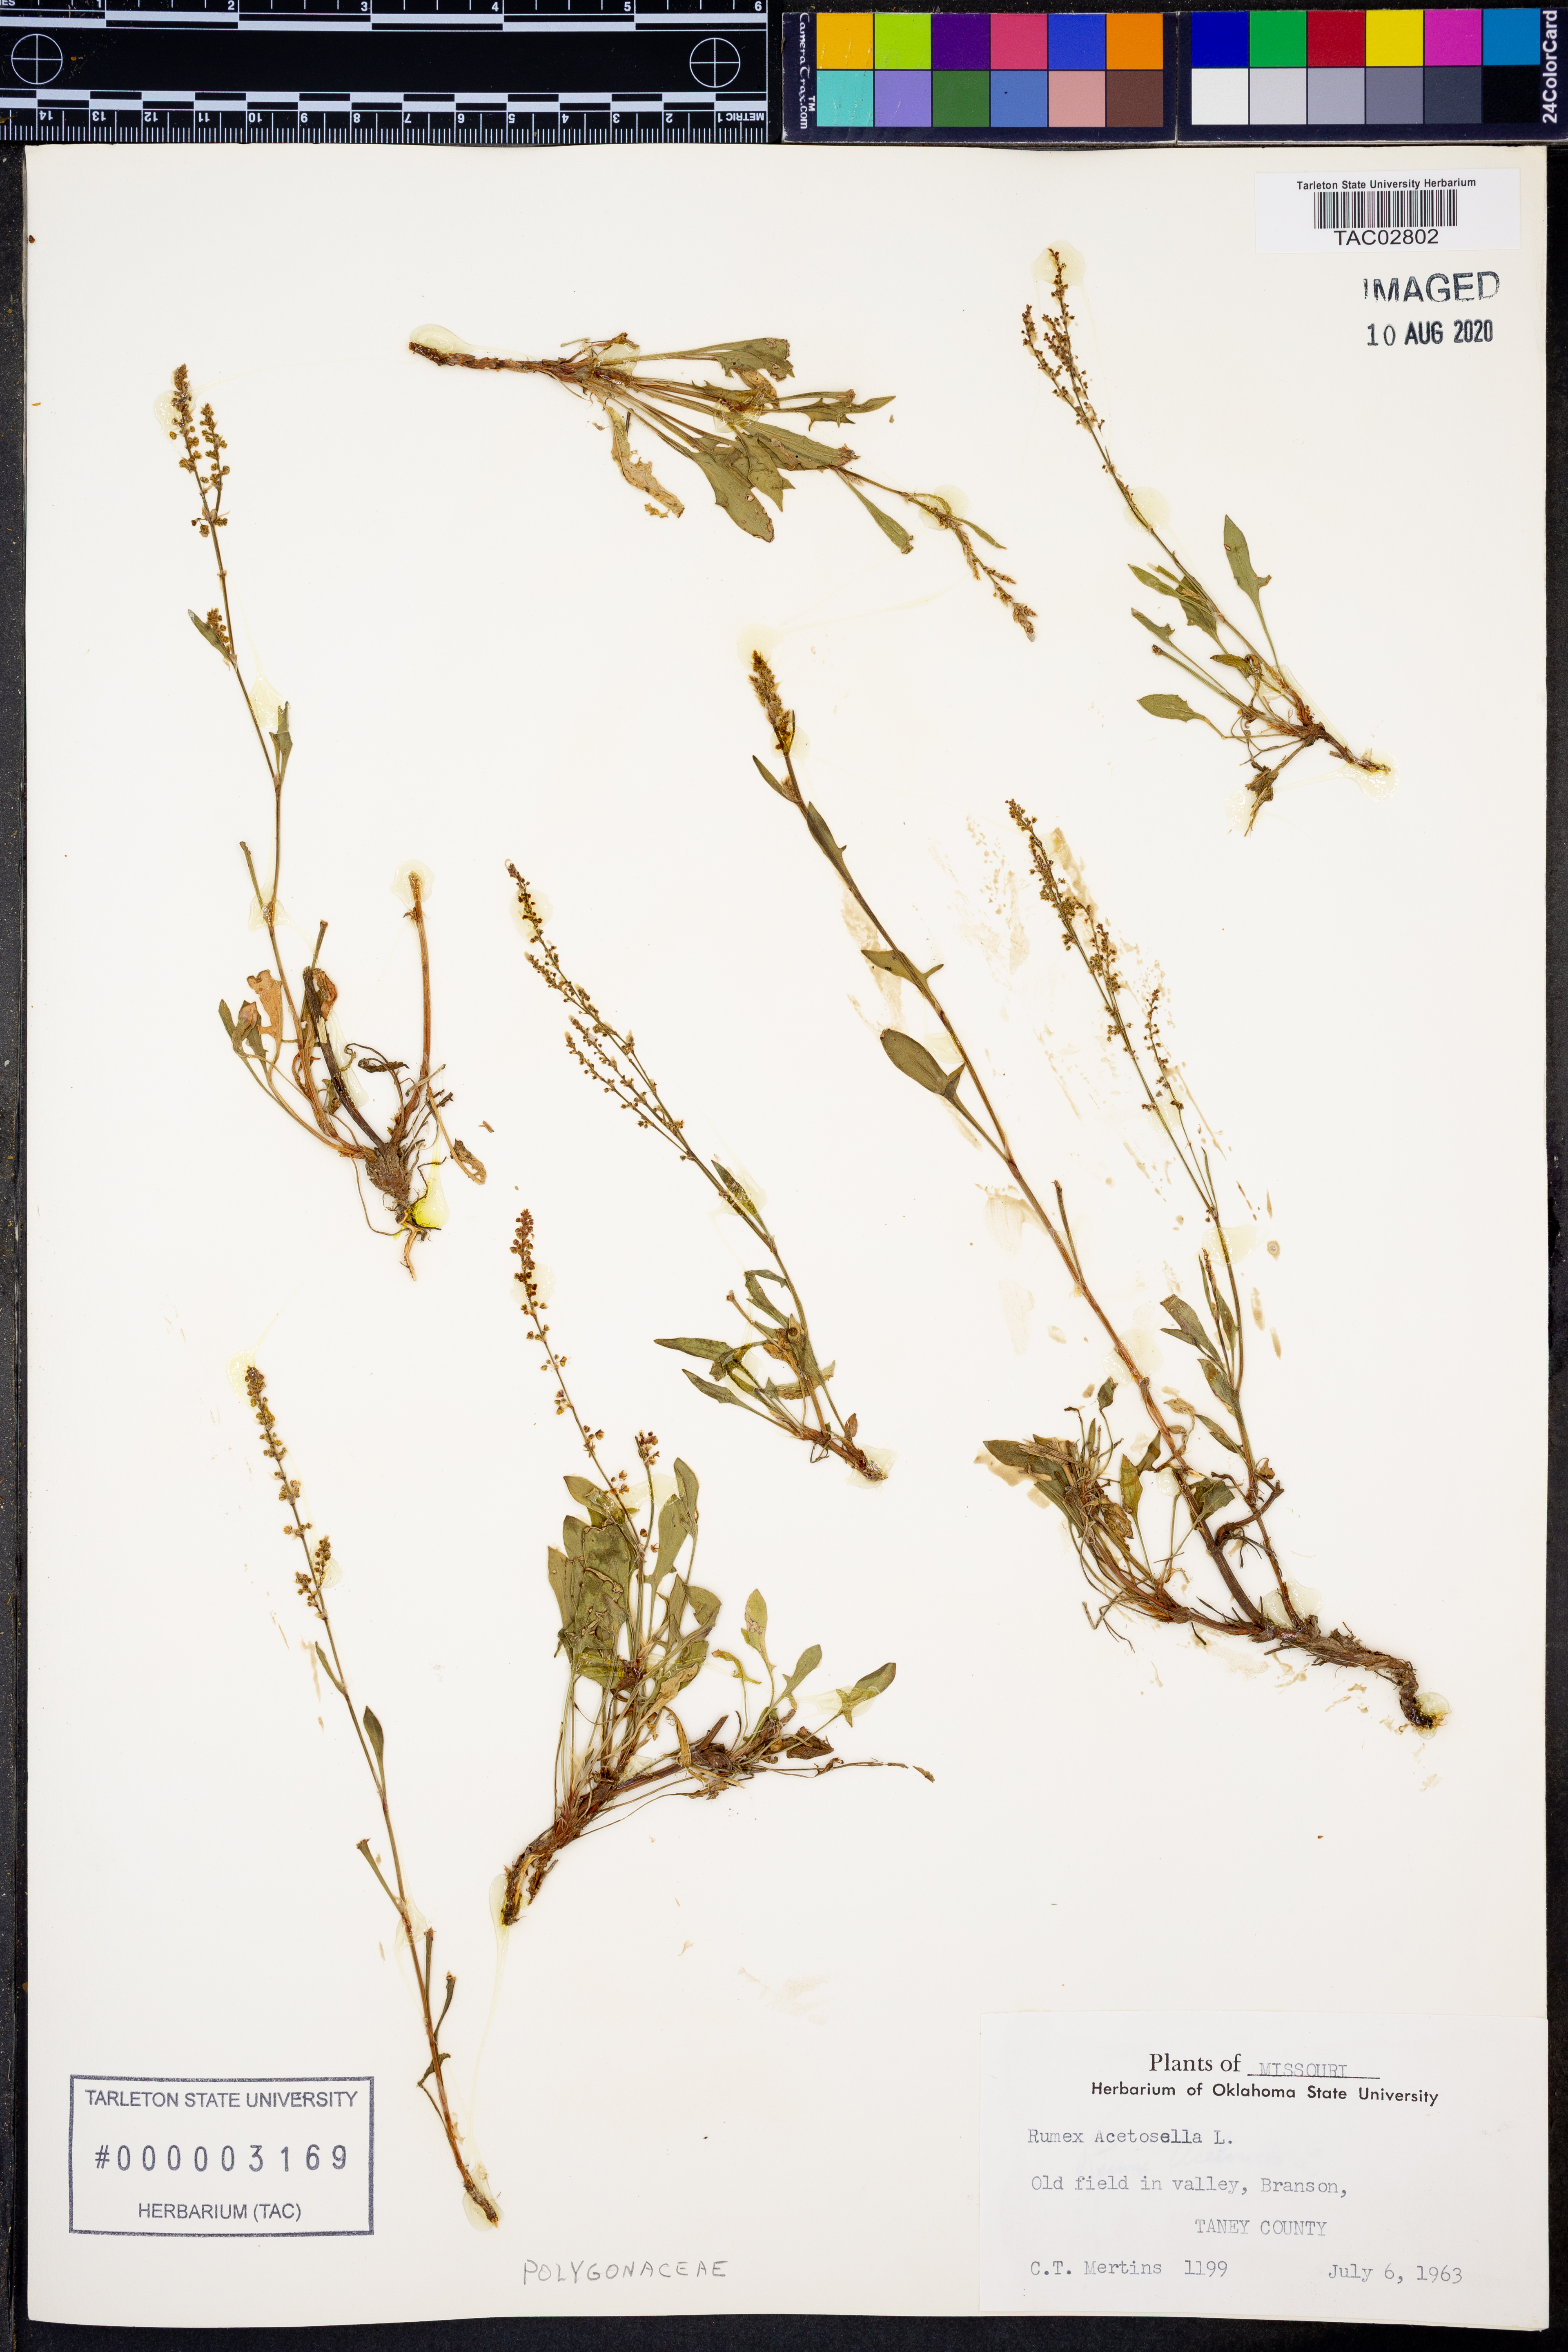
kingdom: Plantae
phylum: Tracheophyta
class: Magnoliopsida
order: Caryophyllales
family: Polygonaceae
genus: Rumex
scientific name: Rumex acetosella
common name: Common sheep sorrel
